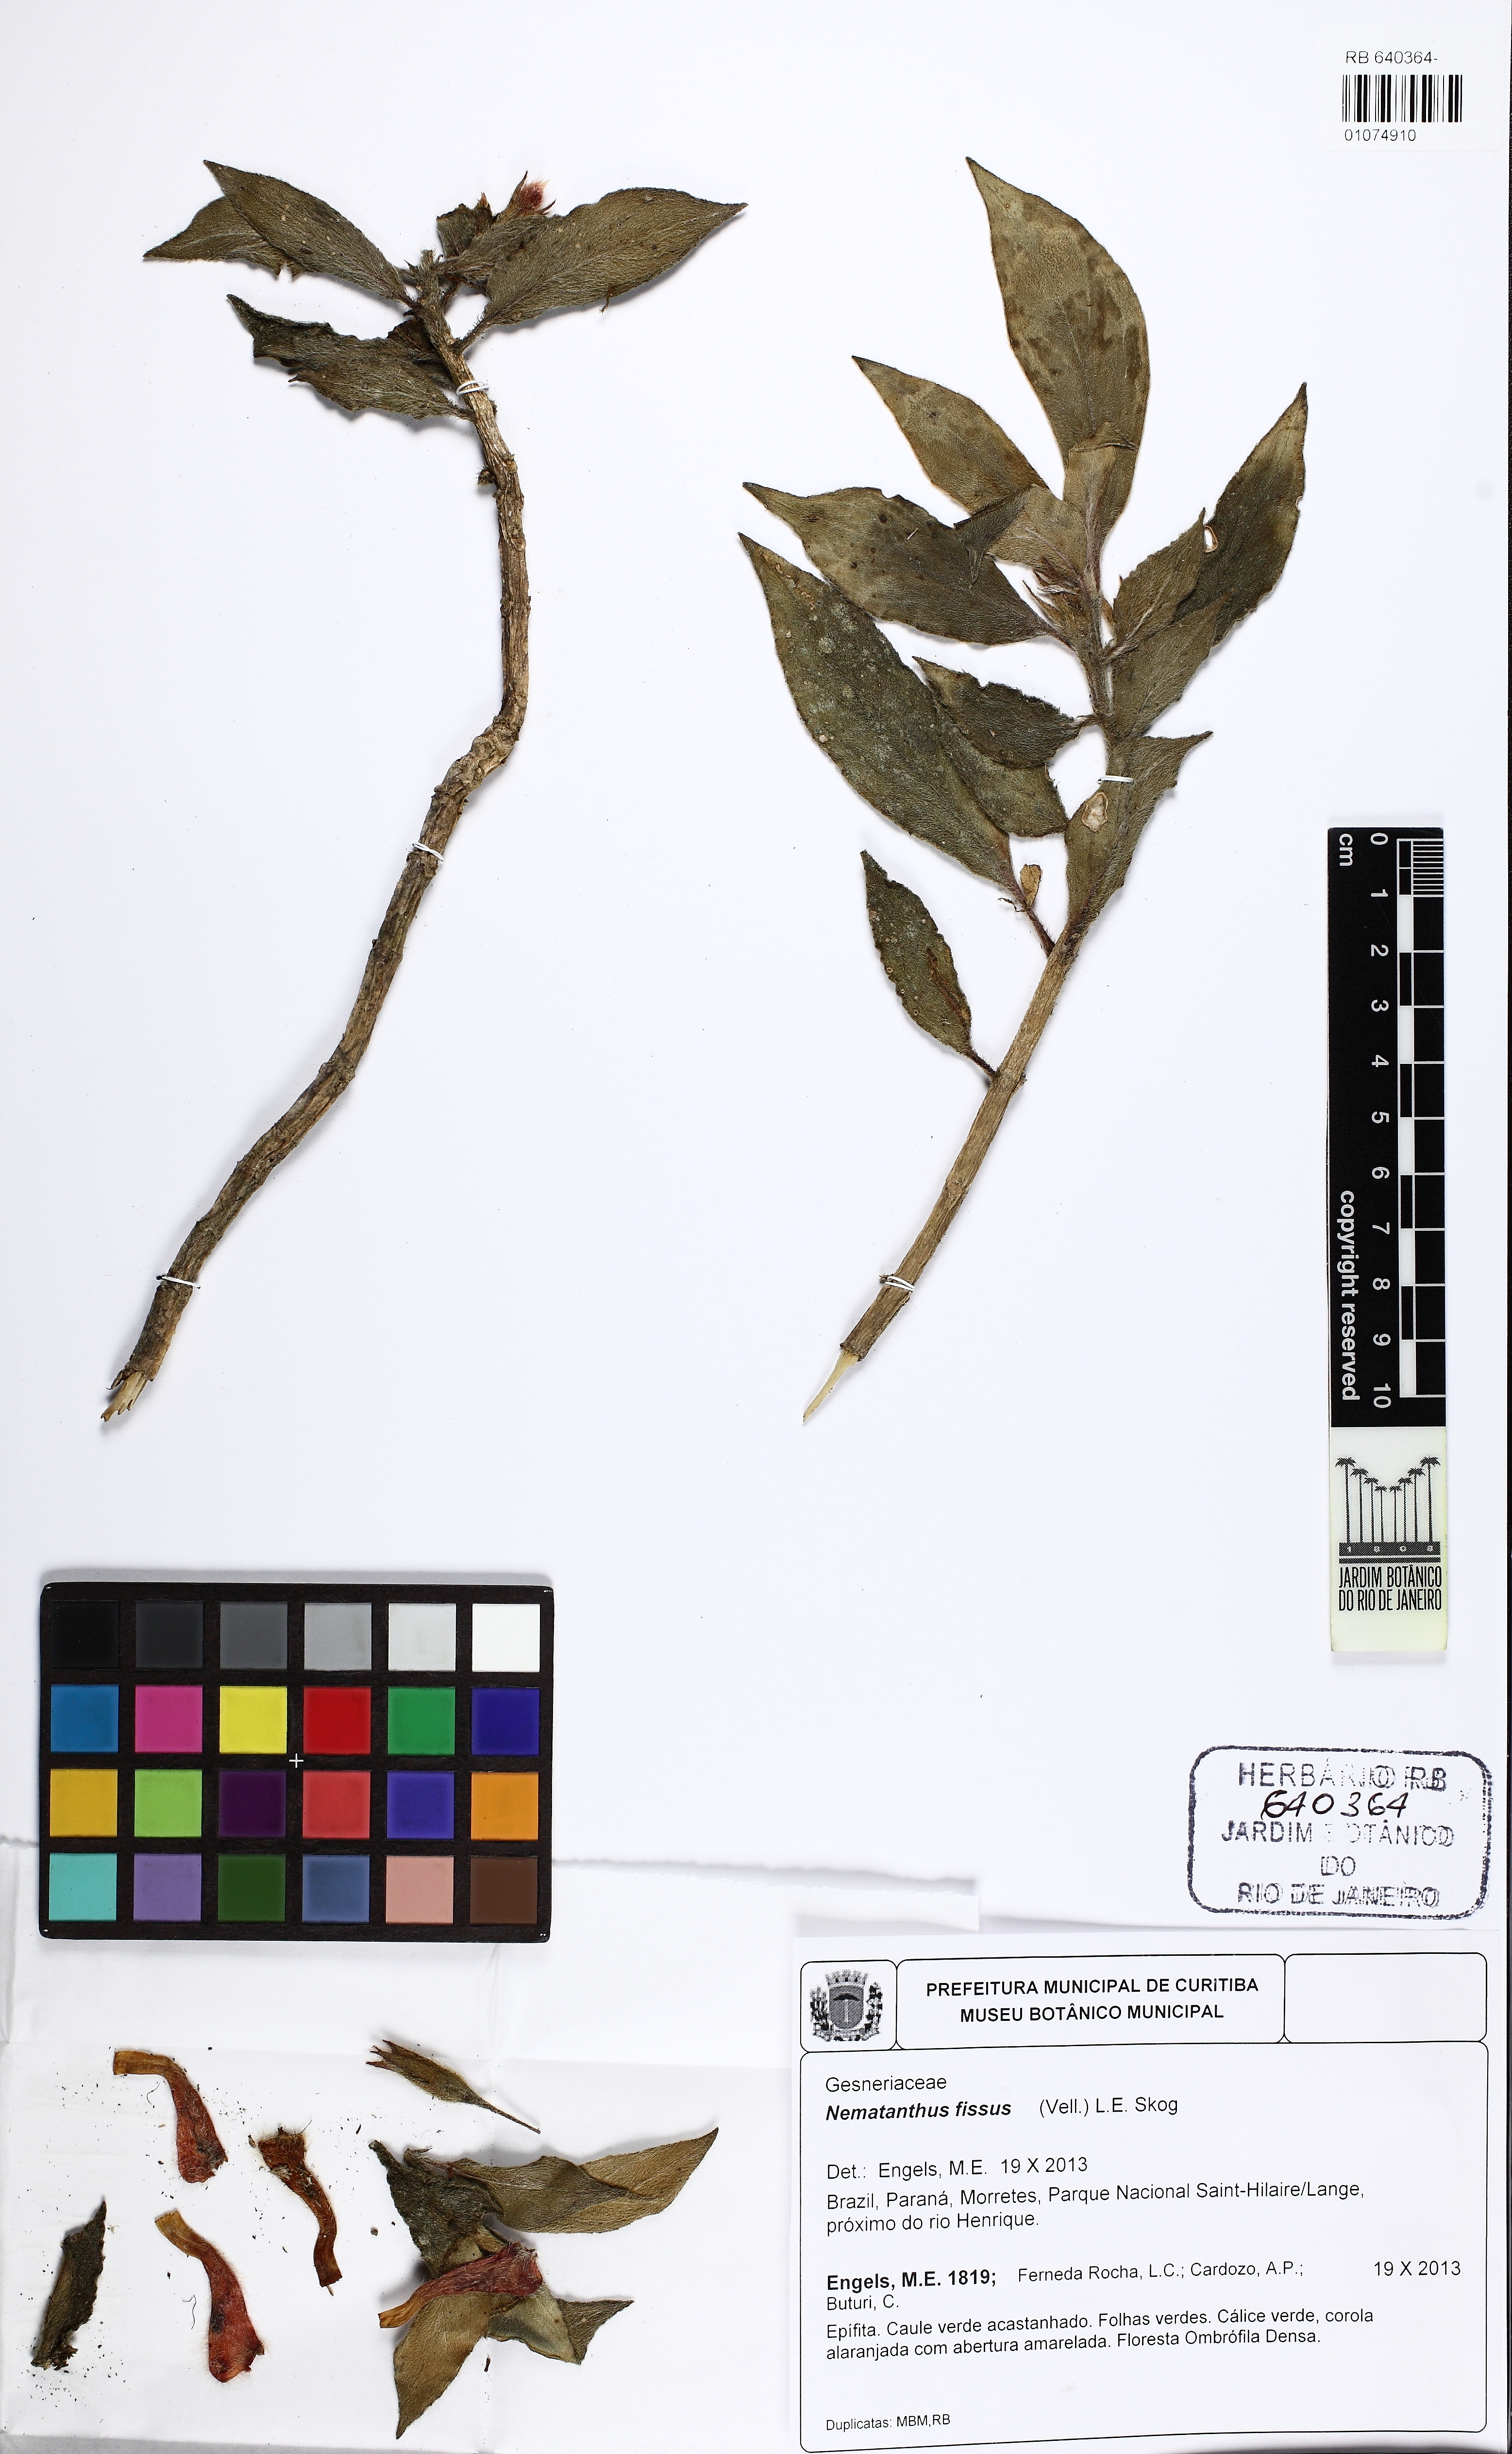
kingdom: Plantae
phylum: Tracheophyta
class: Magnoliopsida
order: Lamiales
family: Gesneriaceae
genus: Nematanthus
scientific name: Nematanthus fissus
